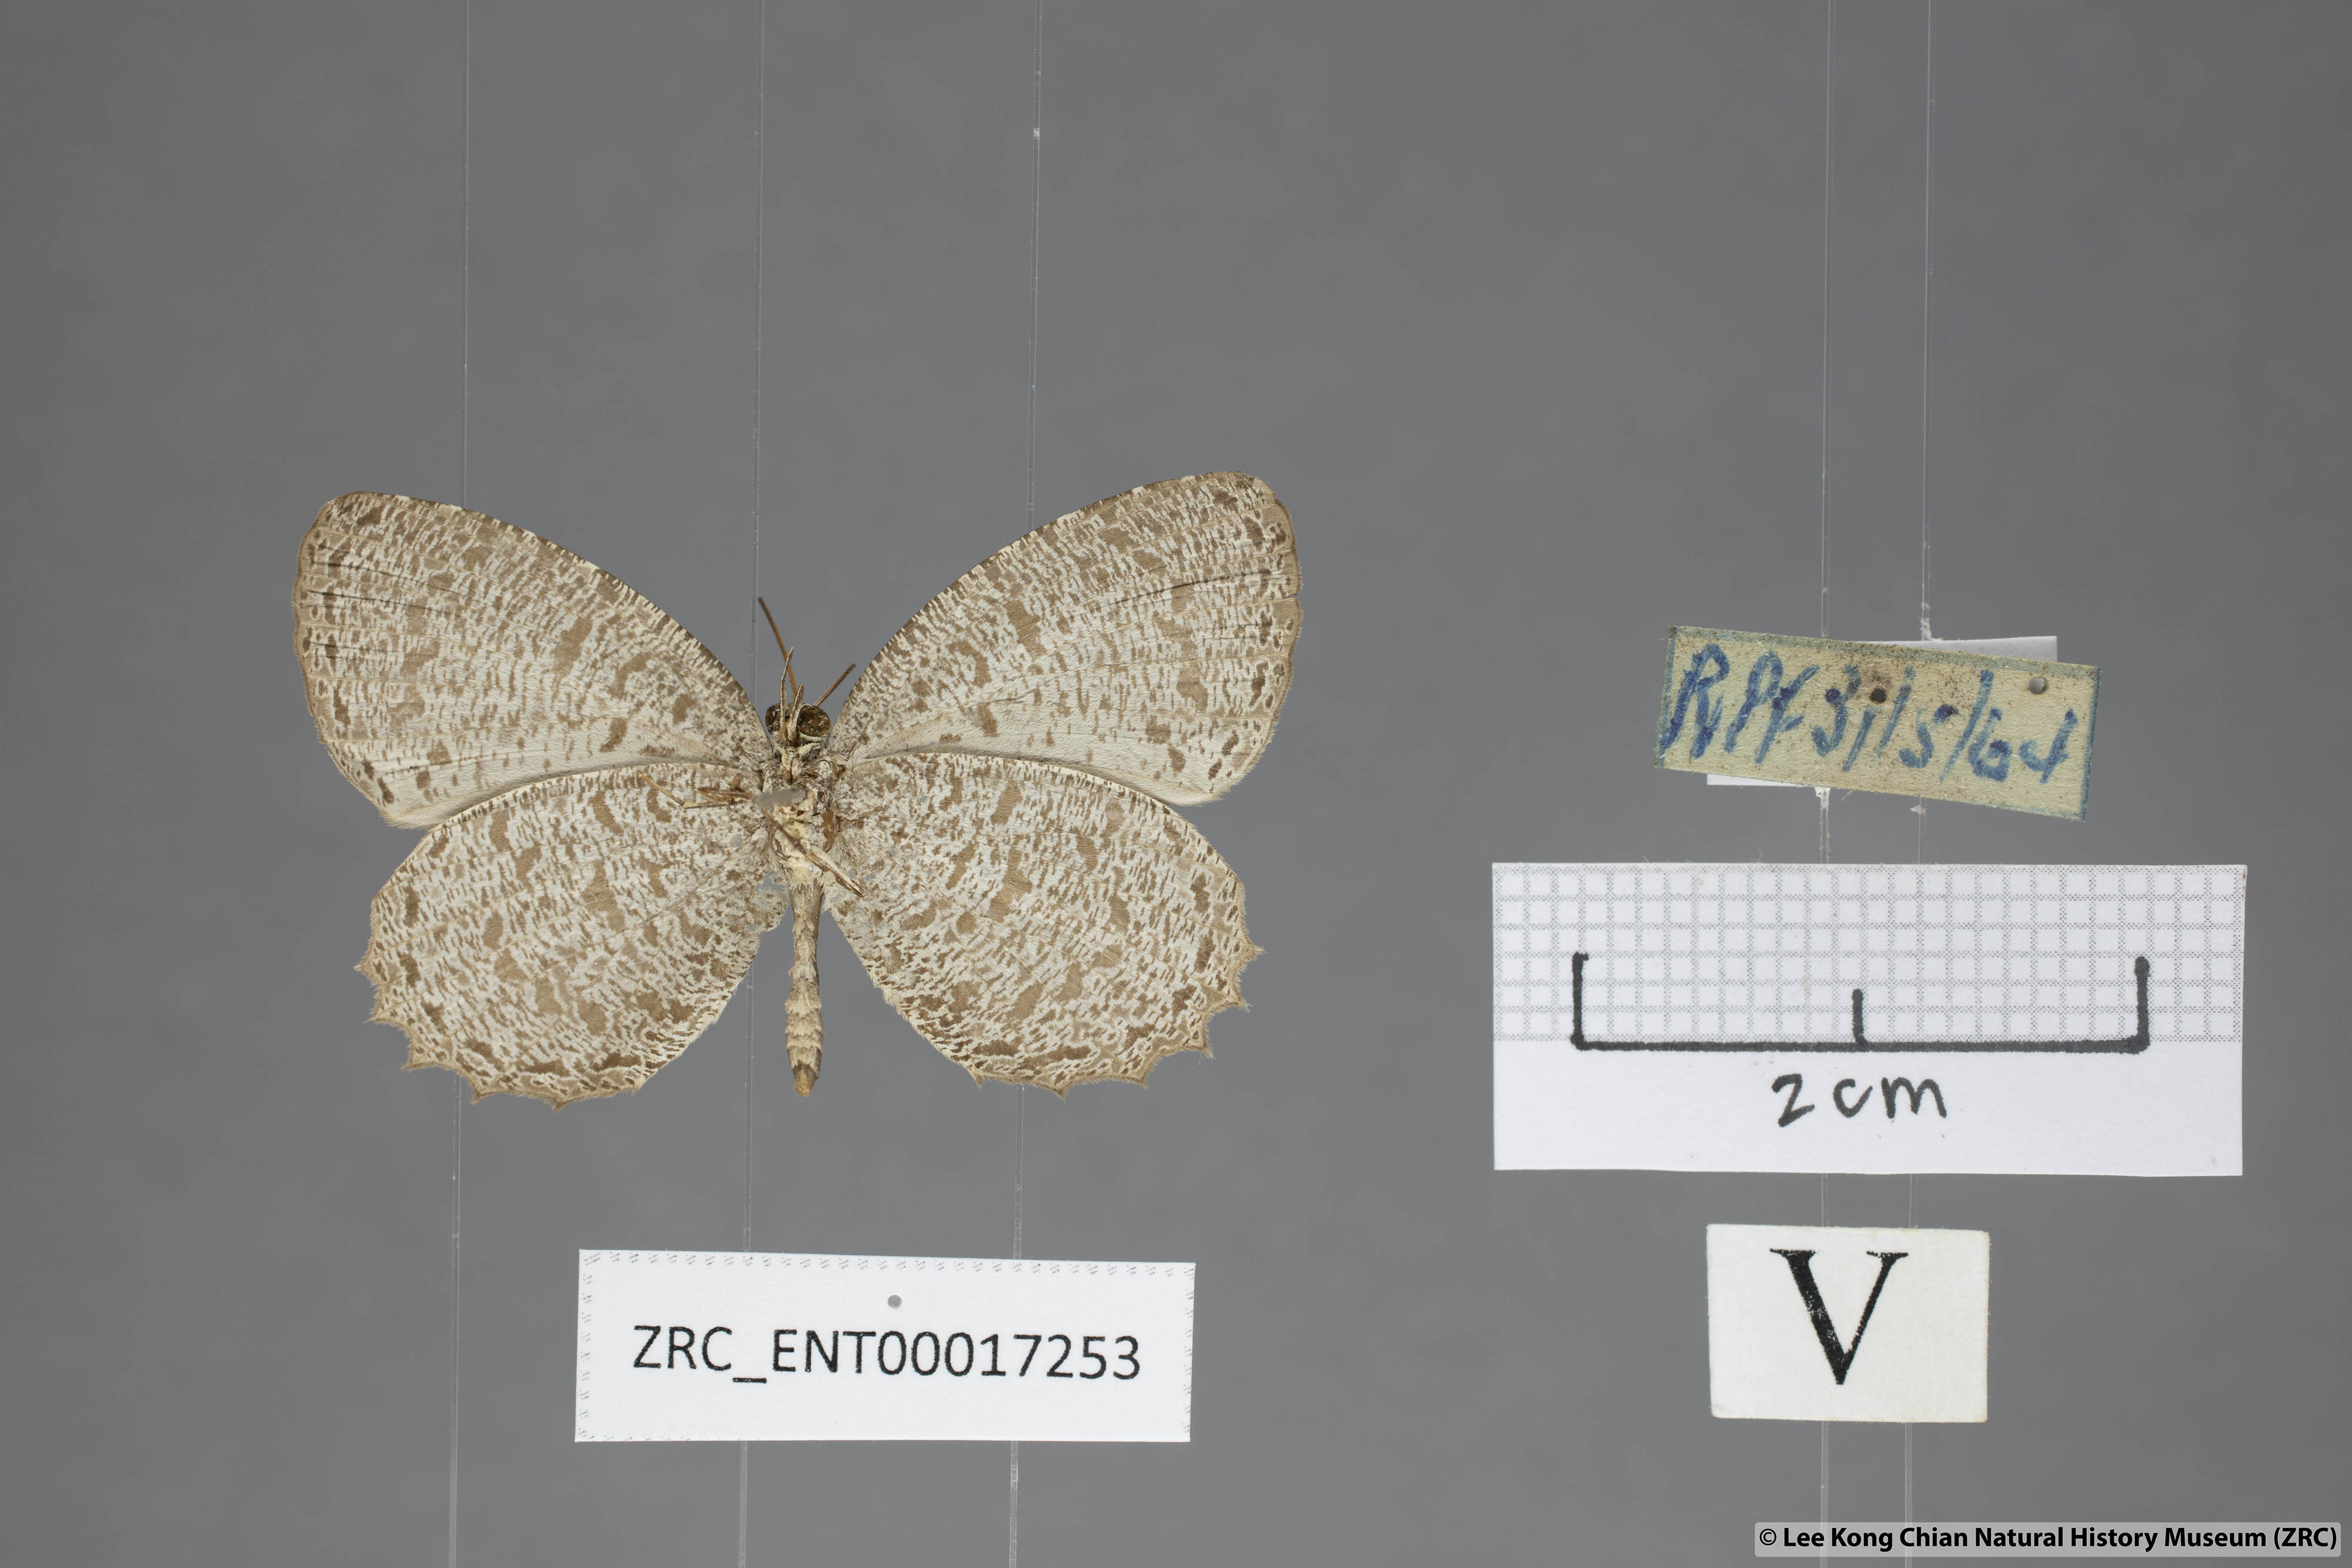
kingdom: Animalia
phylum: Arthropoda
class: Insecta
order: Lepidoptera
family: Lycaenidae
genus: Allotinus
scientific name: Allotinus horsfieldi
